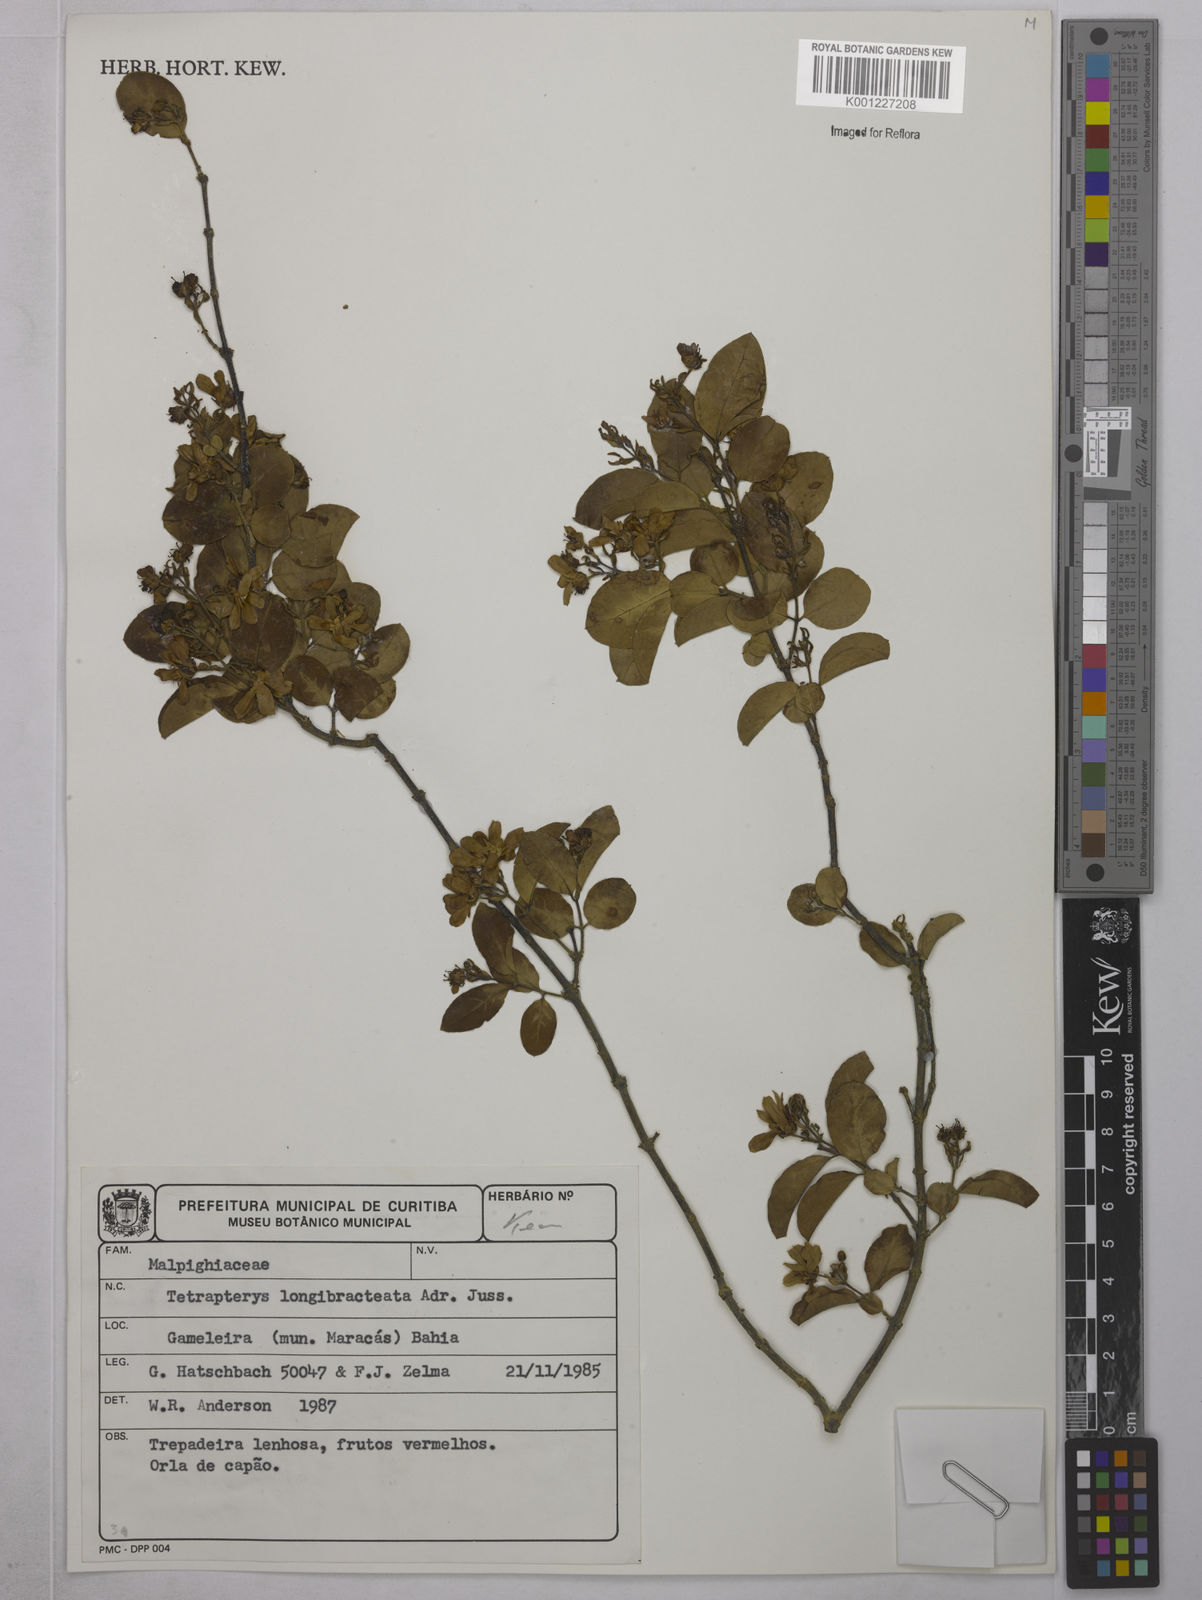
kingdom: Plantae
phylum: Tracheophyta
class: Magnoliopsida
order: Malpighiales
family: Malpighiaceae
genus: Glicophyllum
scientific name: Glicophyllum longibracteatum
